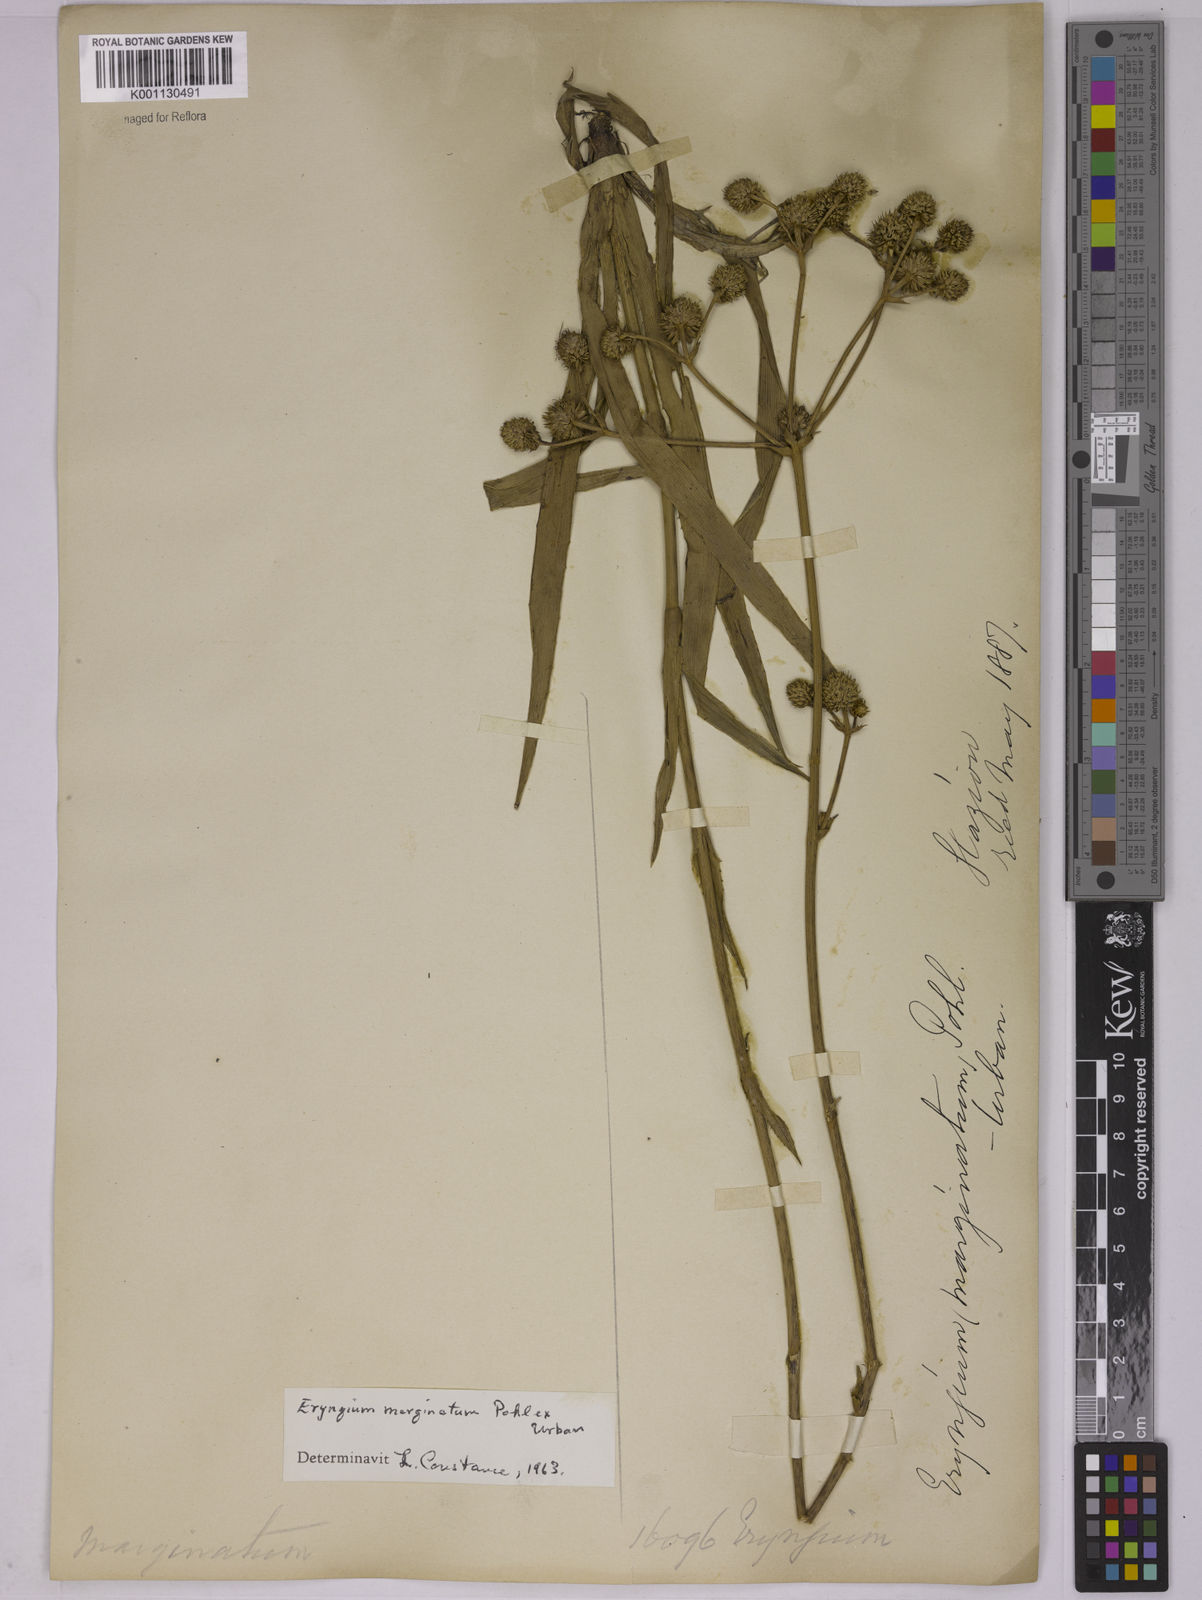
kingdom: Plantae
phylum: Tracheophyta
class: Magnoliopsida
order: Apiales
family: Apiaceae
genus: Eryngium
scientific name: Eryngium marginatum
